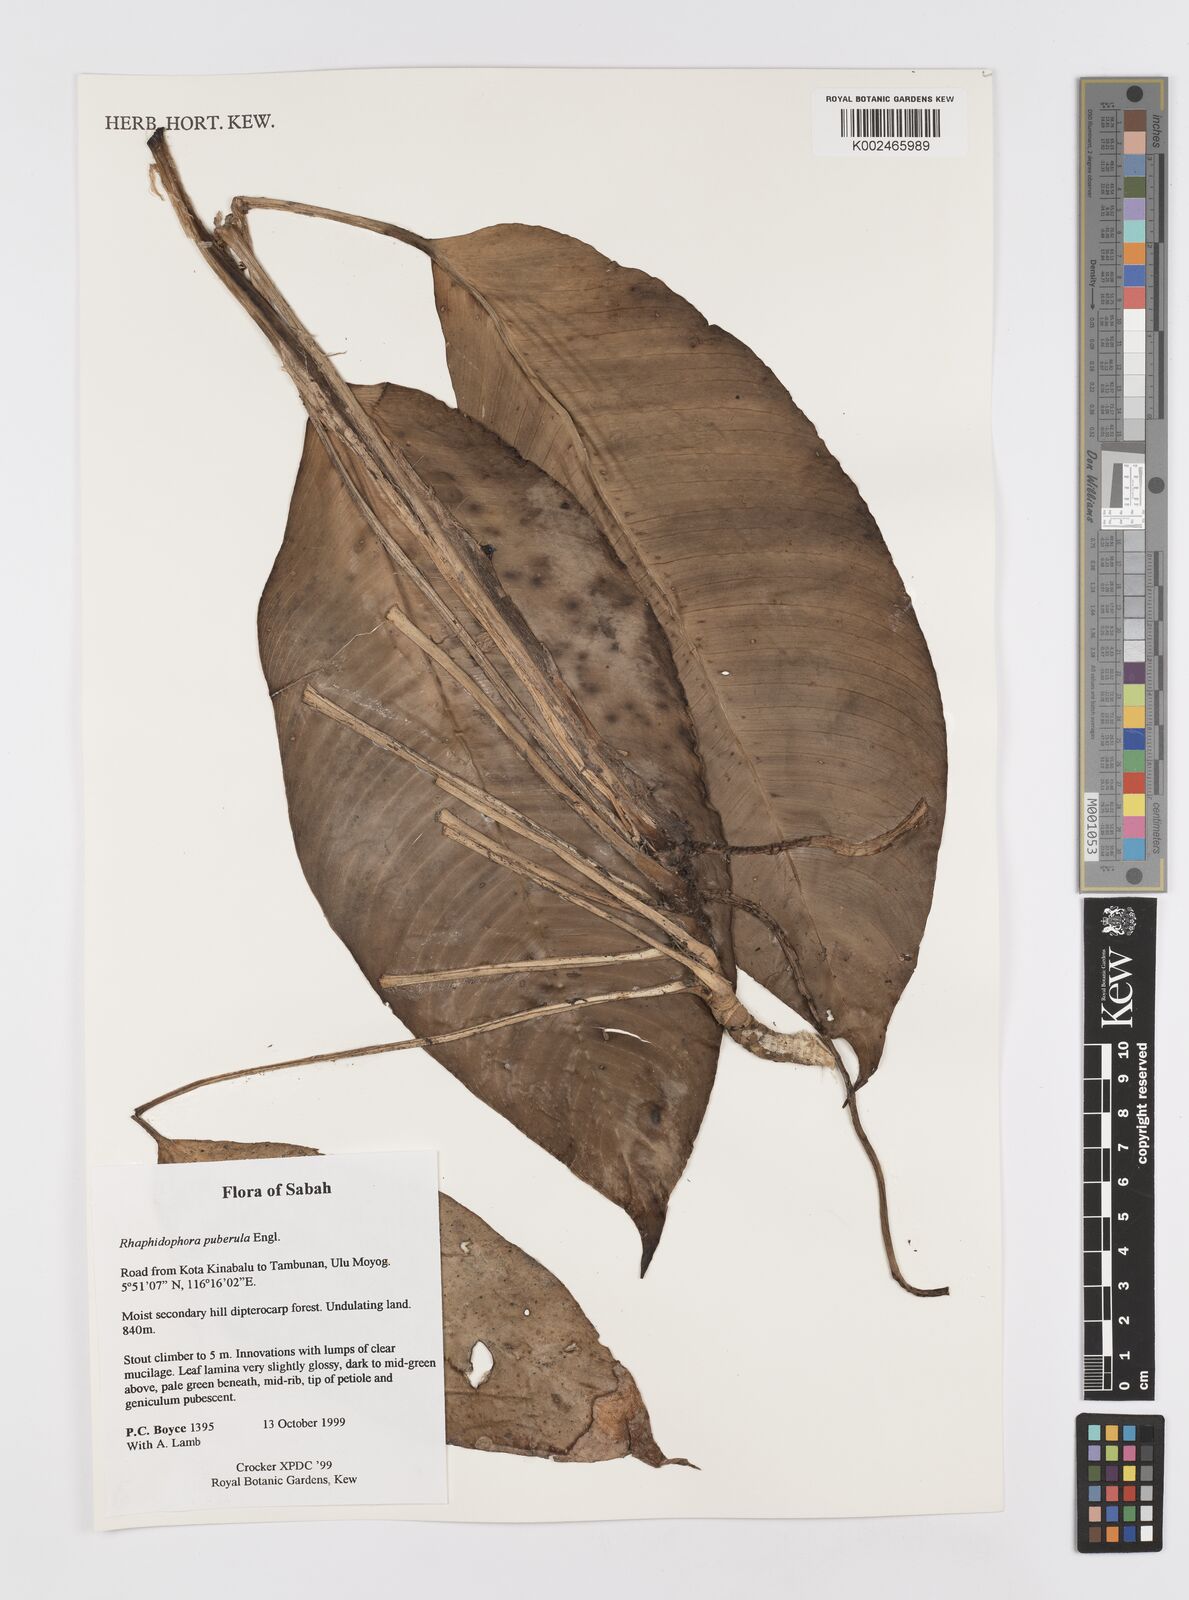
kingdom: Plantae
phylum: Tracheophyta
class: Liliopsida
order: Alismatales
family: Araceae
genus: Rhaphidophora
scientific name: Rhaphidophora puberula
